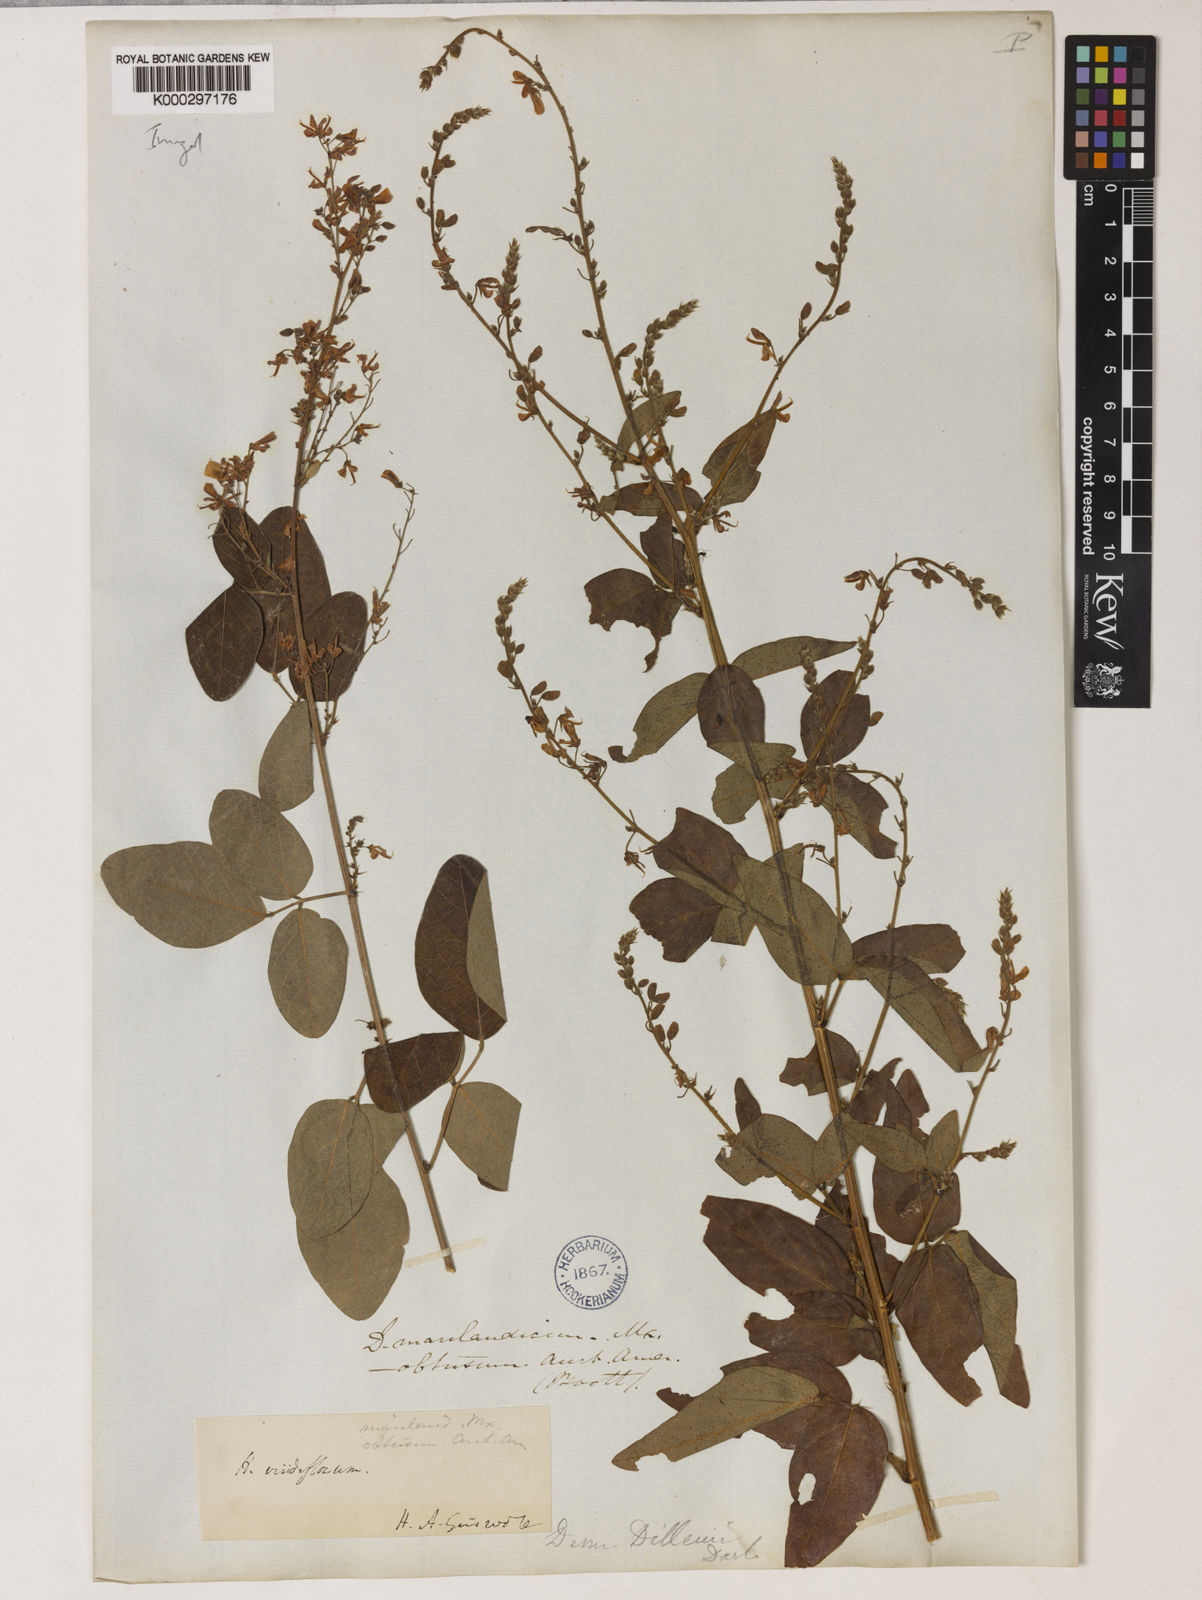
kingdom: Plantae
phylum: Tracheophyta
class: Magnoliopsida
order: Fabales
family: Fabaceae
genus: Desmodium
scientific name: Desmodium perplexum
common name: Perplexed tick trefoil
